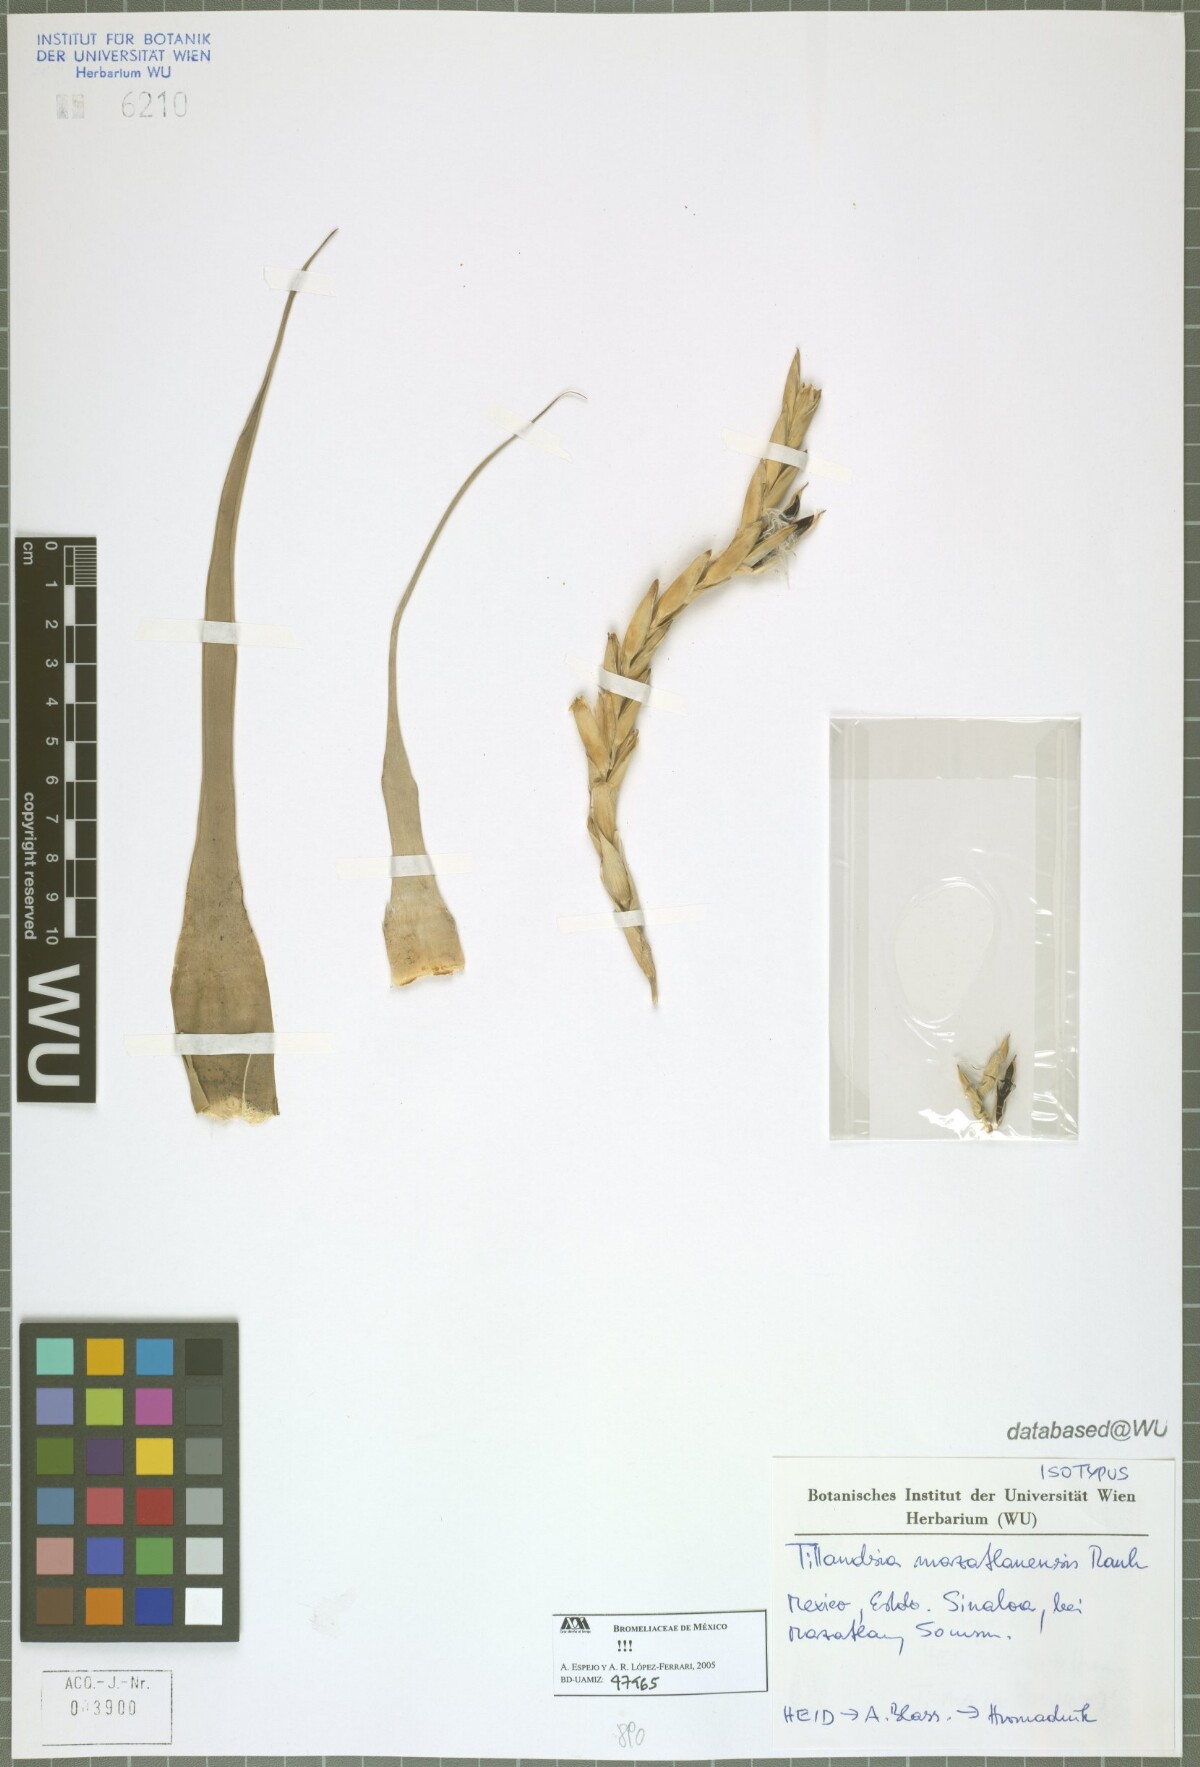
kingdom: Plantae
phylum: Tracheophyta
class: Liliopsida
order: Poales
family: Bromeliaceae
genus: Tillandsia
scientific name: Tillandsia mazatlanensis
